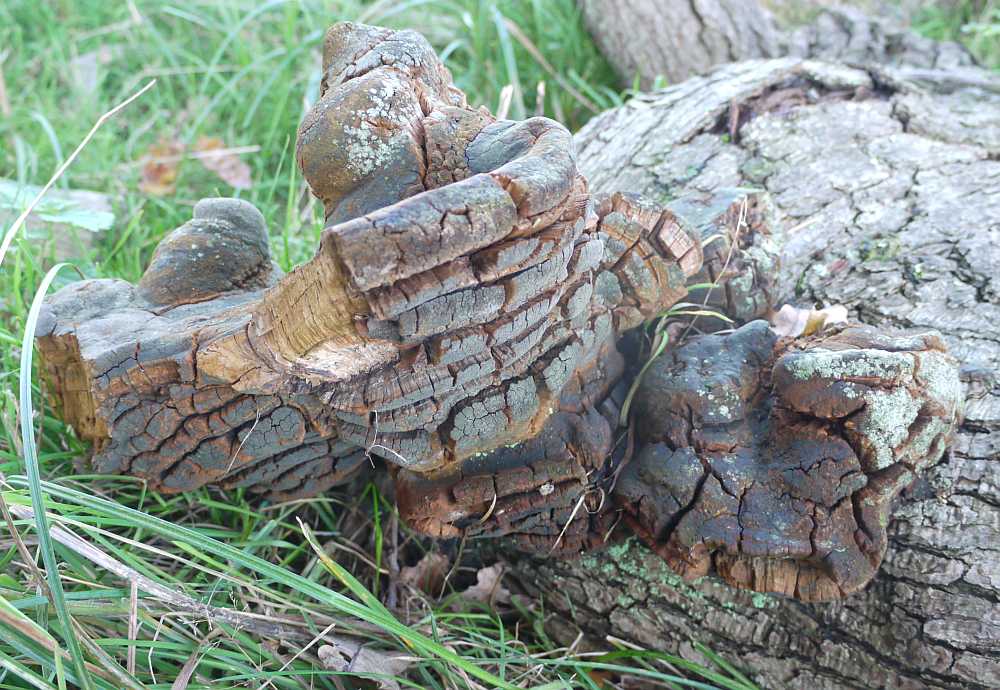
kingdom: Fungi
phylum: Basidiomycota
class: Agaricomycetes
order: Hymenochaetales
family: Hymenochaetaceae
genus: Fomitiporia
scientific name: Fomitiporia robusta
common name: ege-ildporesvamp
